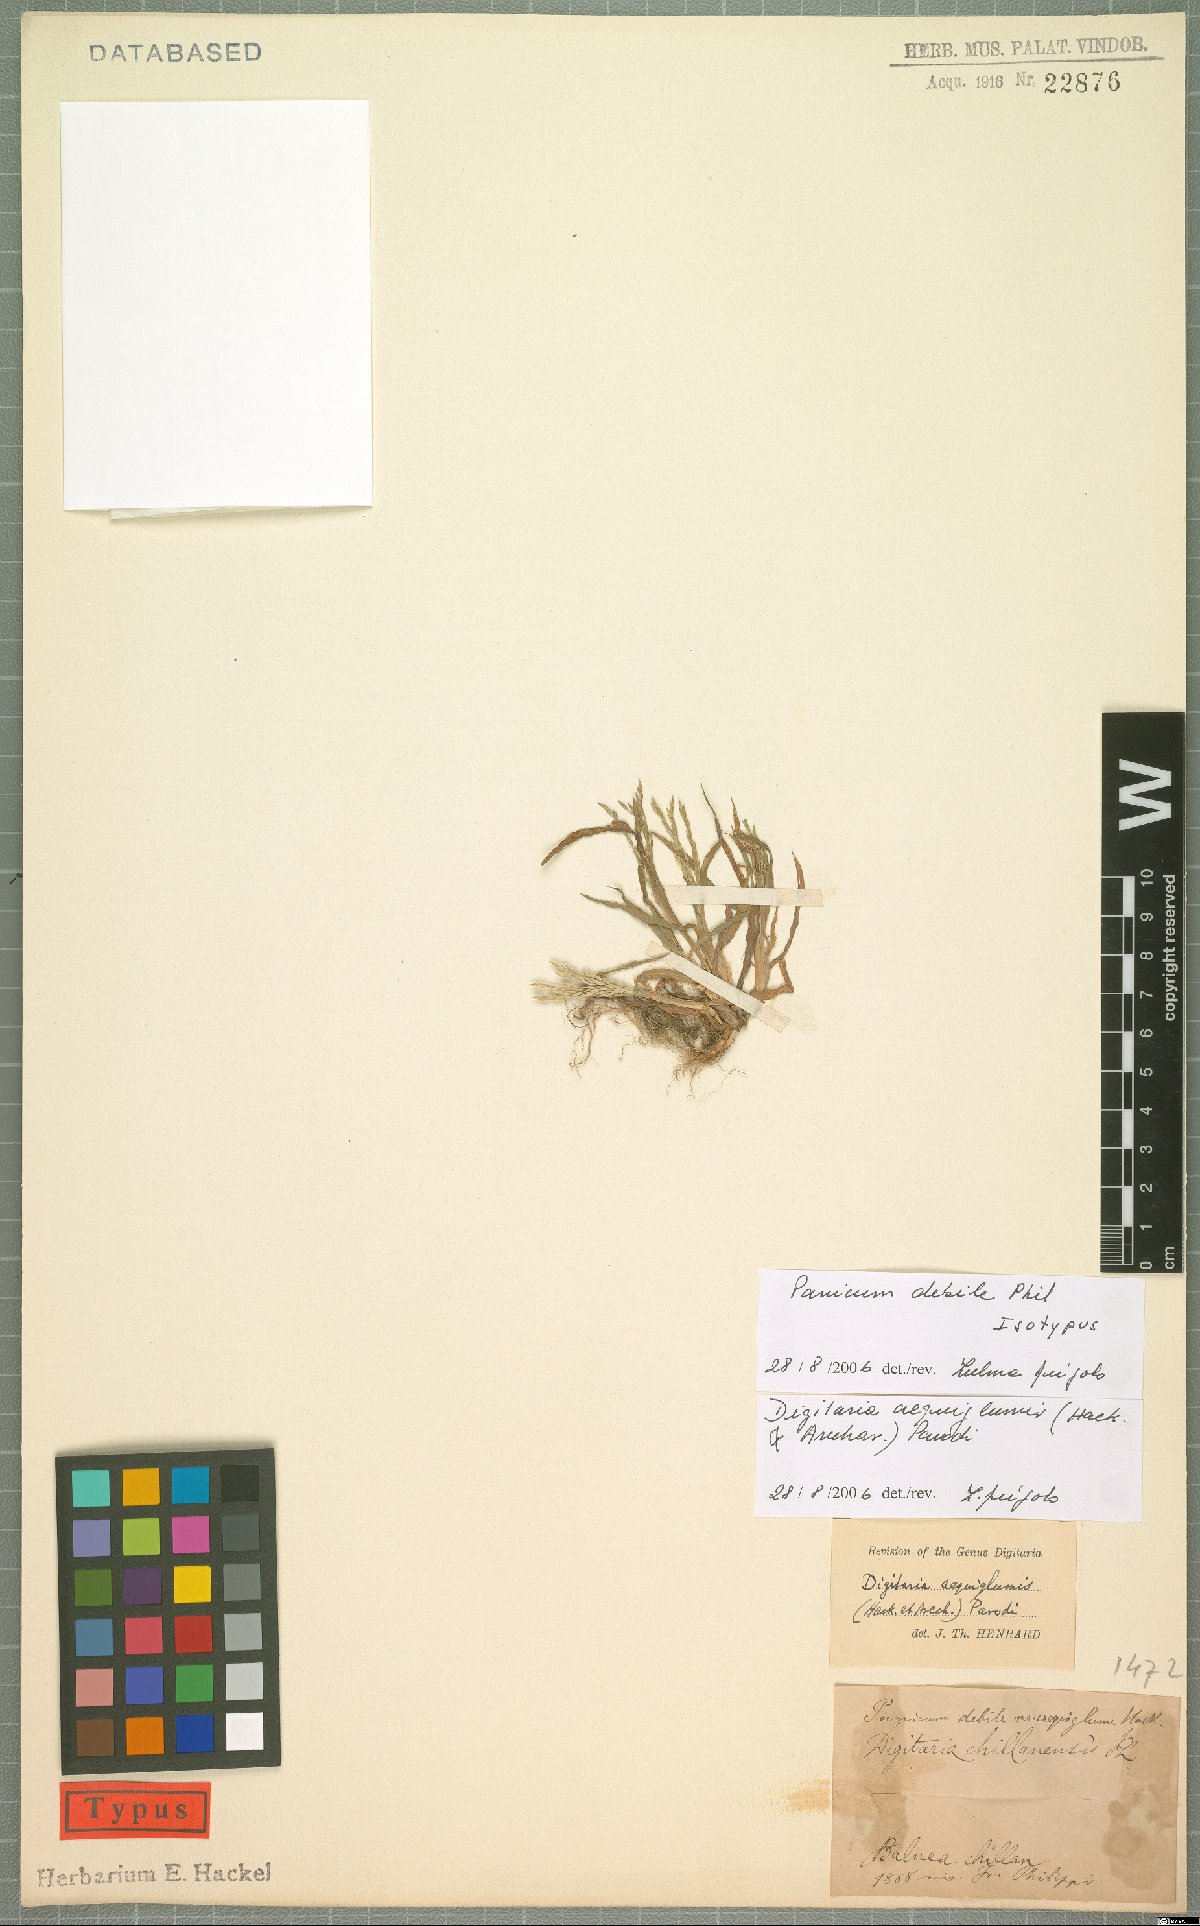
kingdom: Plantae
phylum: Tracheophyta
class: Liliopsida
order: Poales
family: Poaceae
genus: Digitaria
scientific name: Digitaria aequiglumis
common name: Argentinian crabgrass
